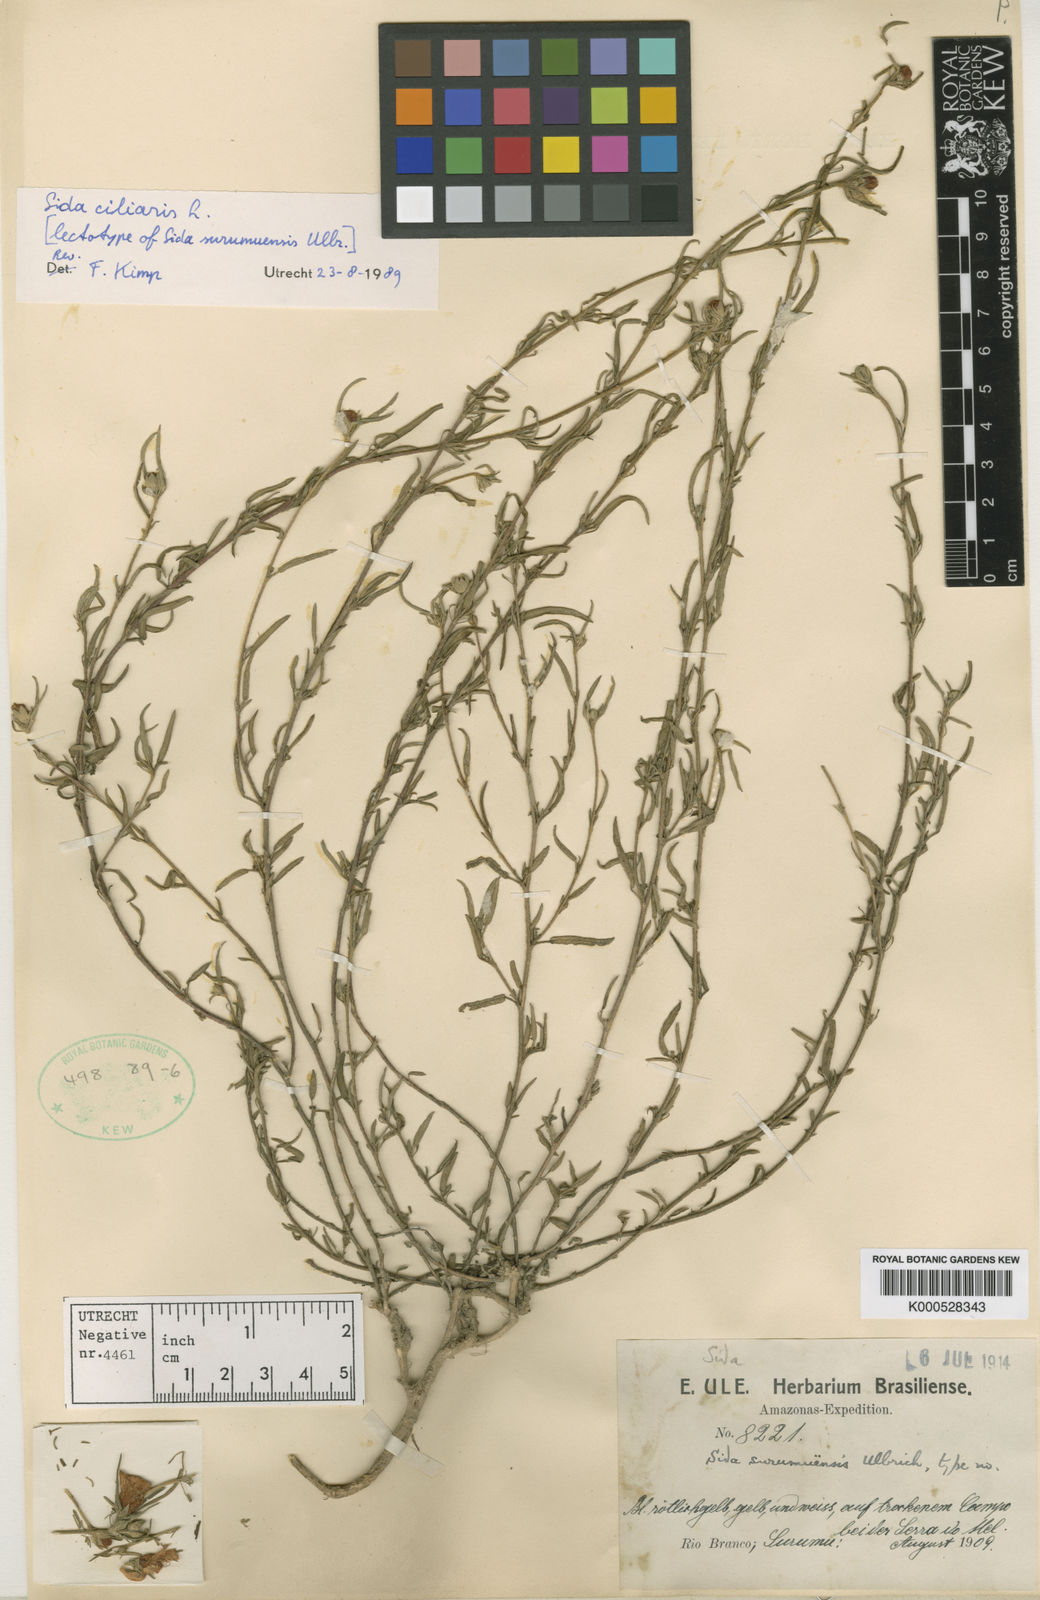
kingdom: Plantae
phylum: Tracheophyta
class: Magnoliopsida
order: Malvales
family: Malvaceae
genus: Sida
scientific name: Sida ciliaris
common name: Bracted fanpetals
